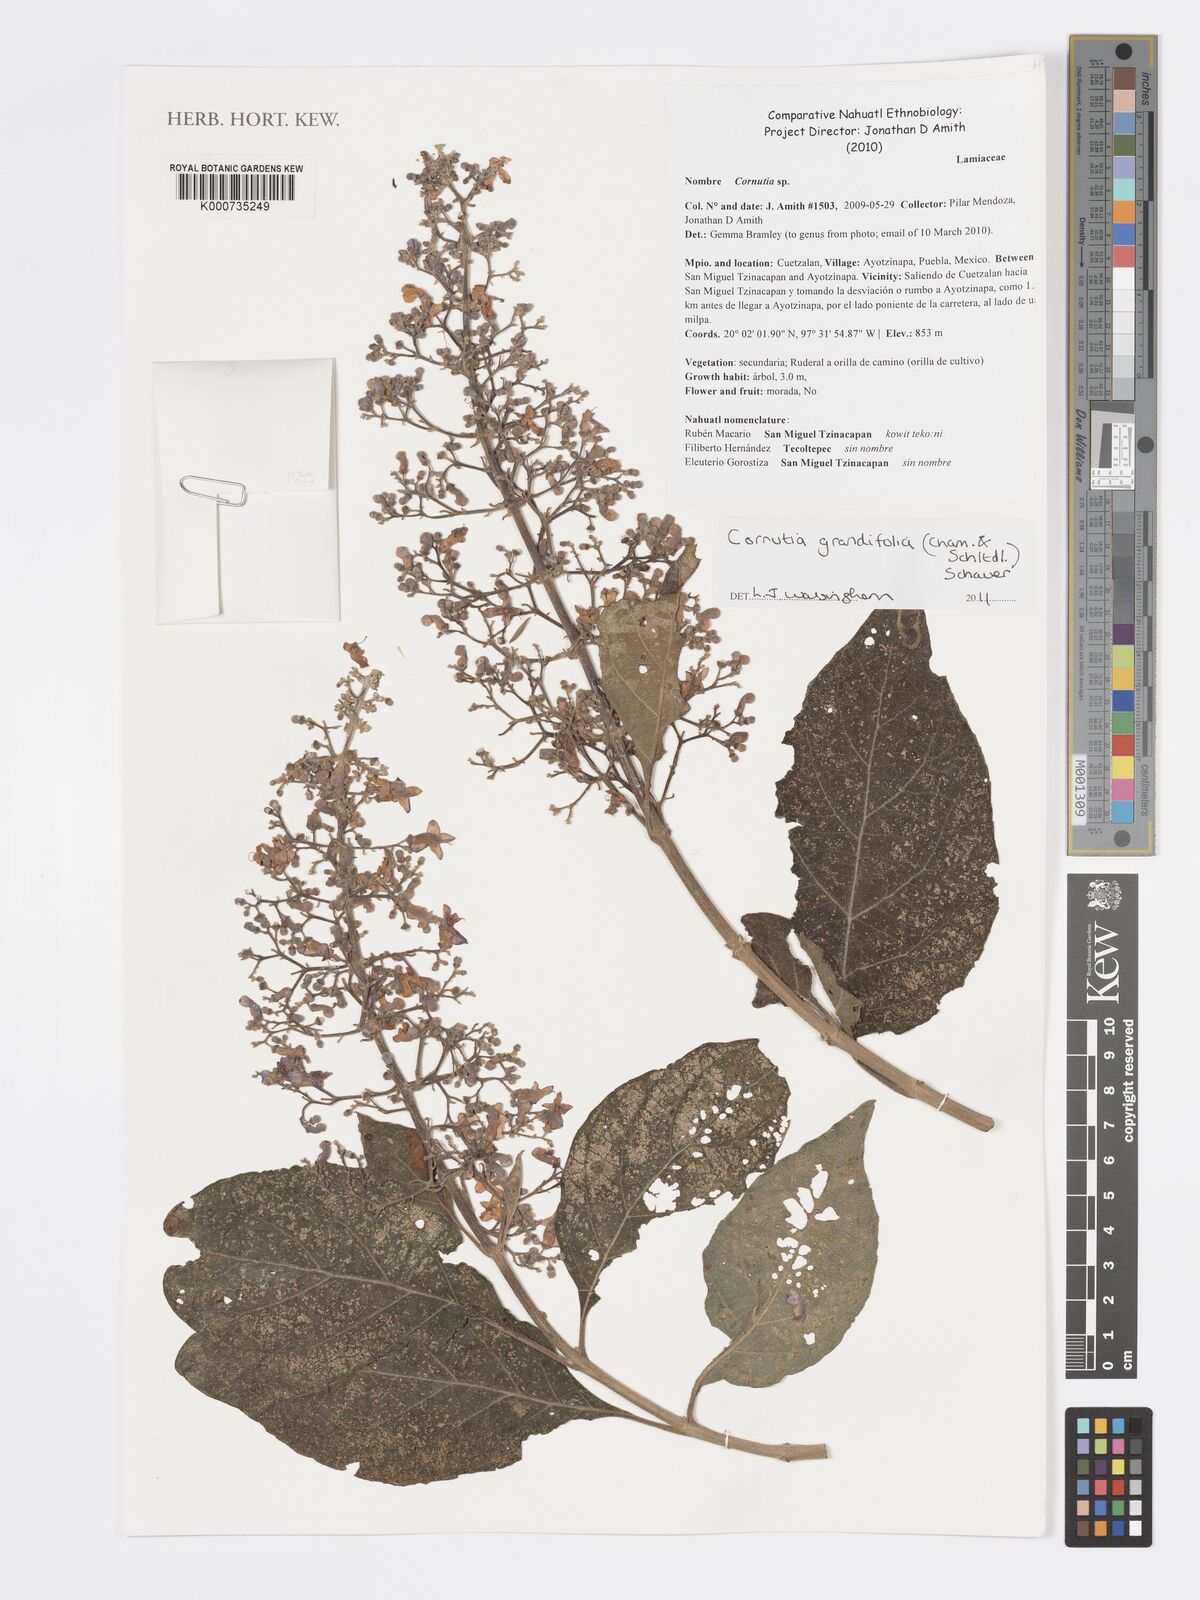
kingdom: Plantae
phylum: Tracheophyta
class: Magnoliopsida
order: Lamiales
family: Lamiaceae
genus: Cornutia
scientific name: Cornutia pyramidata
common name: Azulejo
